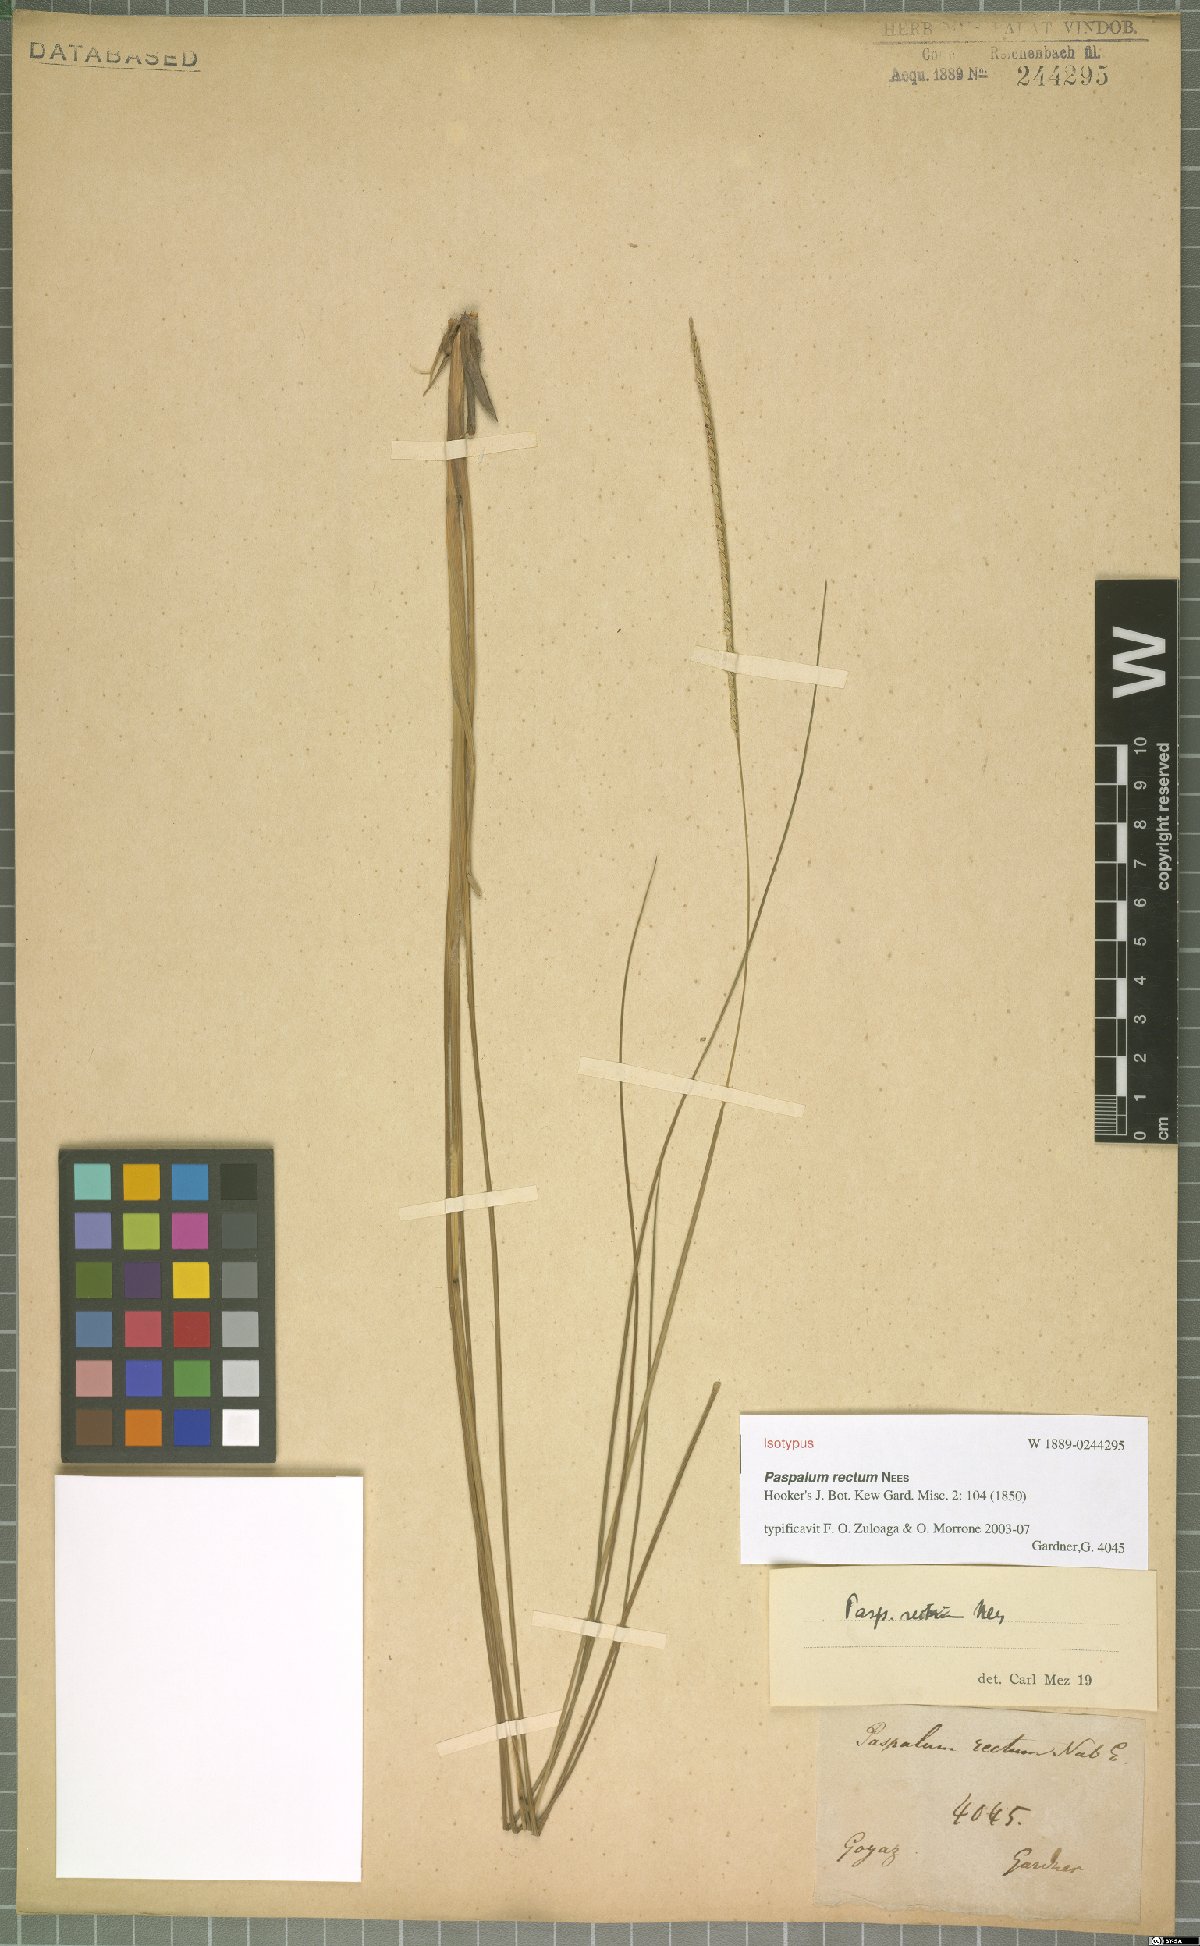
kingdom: Plantae
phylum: Tracheophyta
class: Liliopsida
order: Poales
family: Poaceae
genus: Paspalum
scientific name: Paspalum rectum
